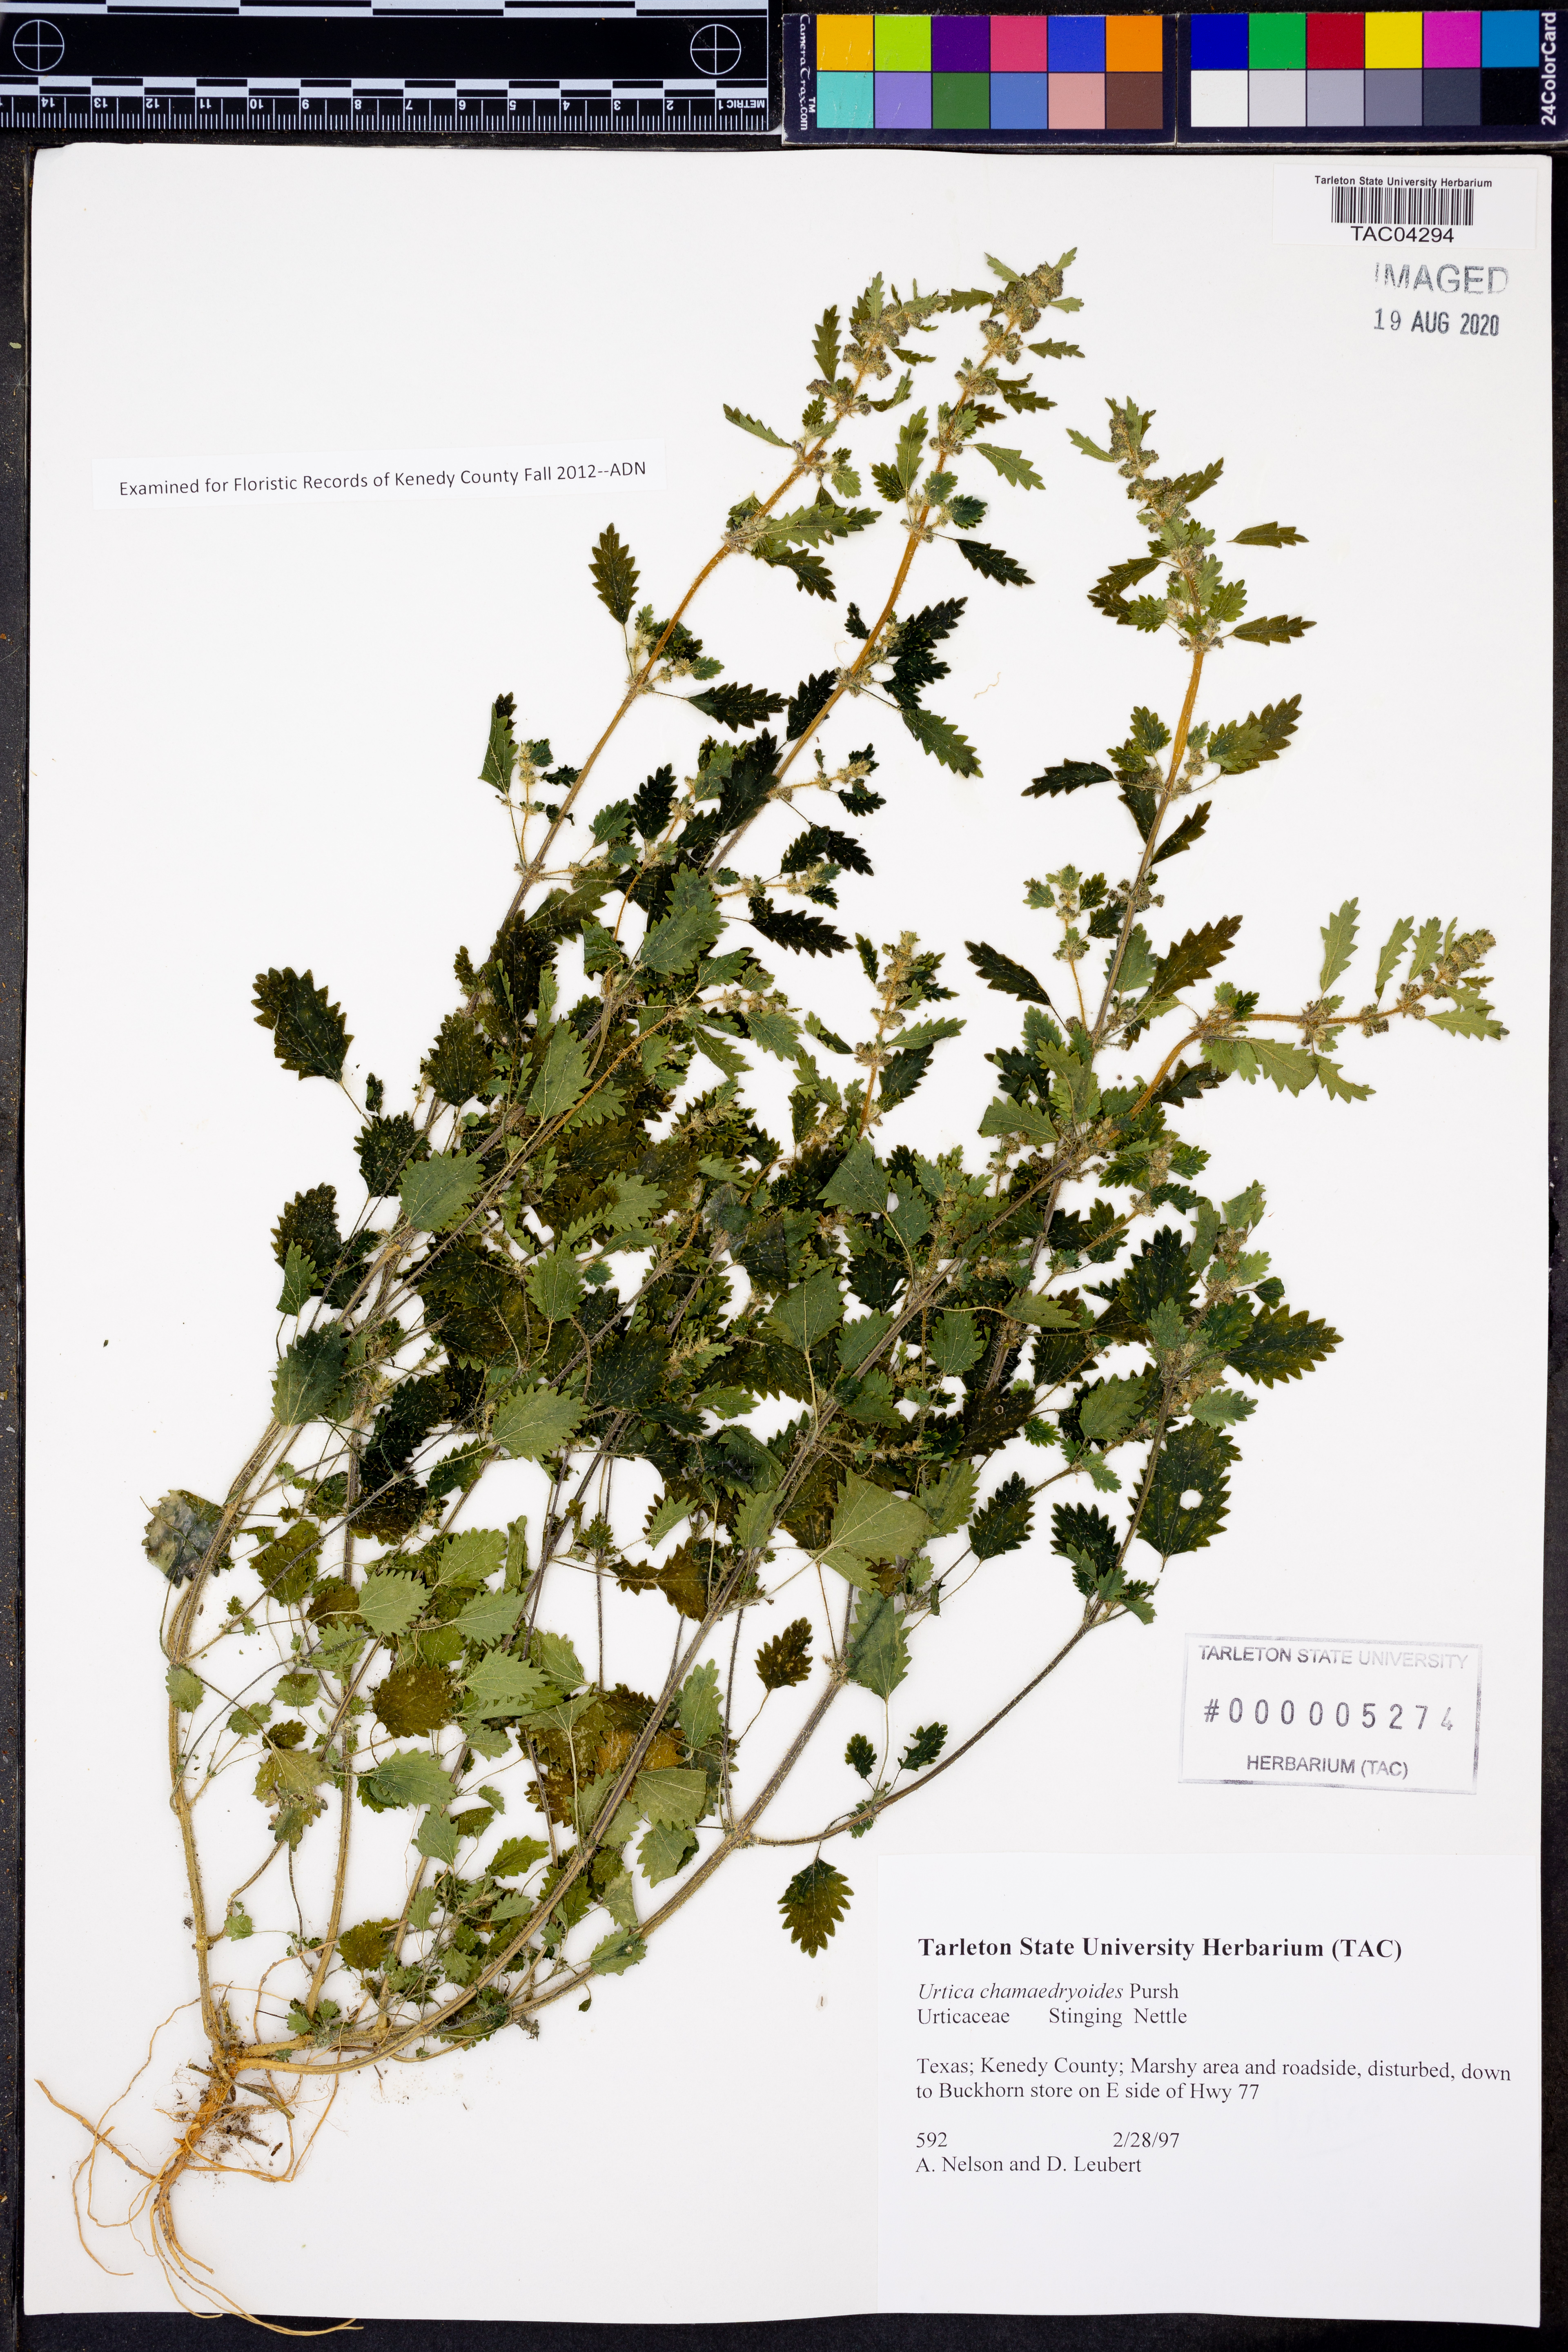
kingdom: Plantae
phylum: Tracheophyta
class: Magnoliopsida
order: Rosales
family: Urticaceae
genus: Urtica
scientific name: Urtica chamaedryoides
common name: Heart-leaf nettle
